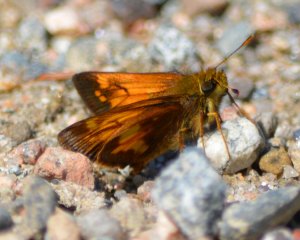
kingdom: Animalia
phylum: Arthropoda
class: Insecta
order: Lepidoptera
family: Hesperiidae
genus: Lon
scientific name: Lon hobomok
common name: Hobomok Skipper
